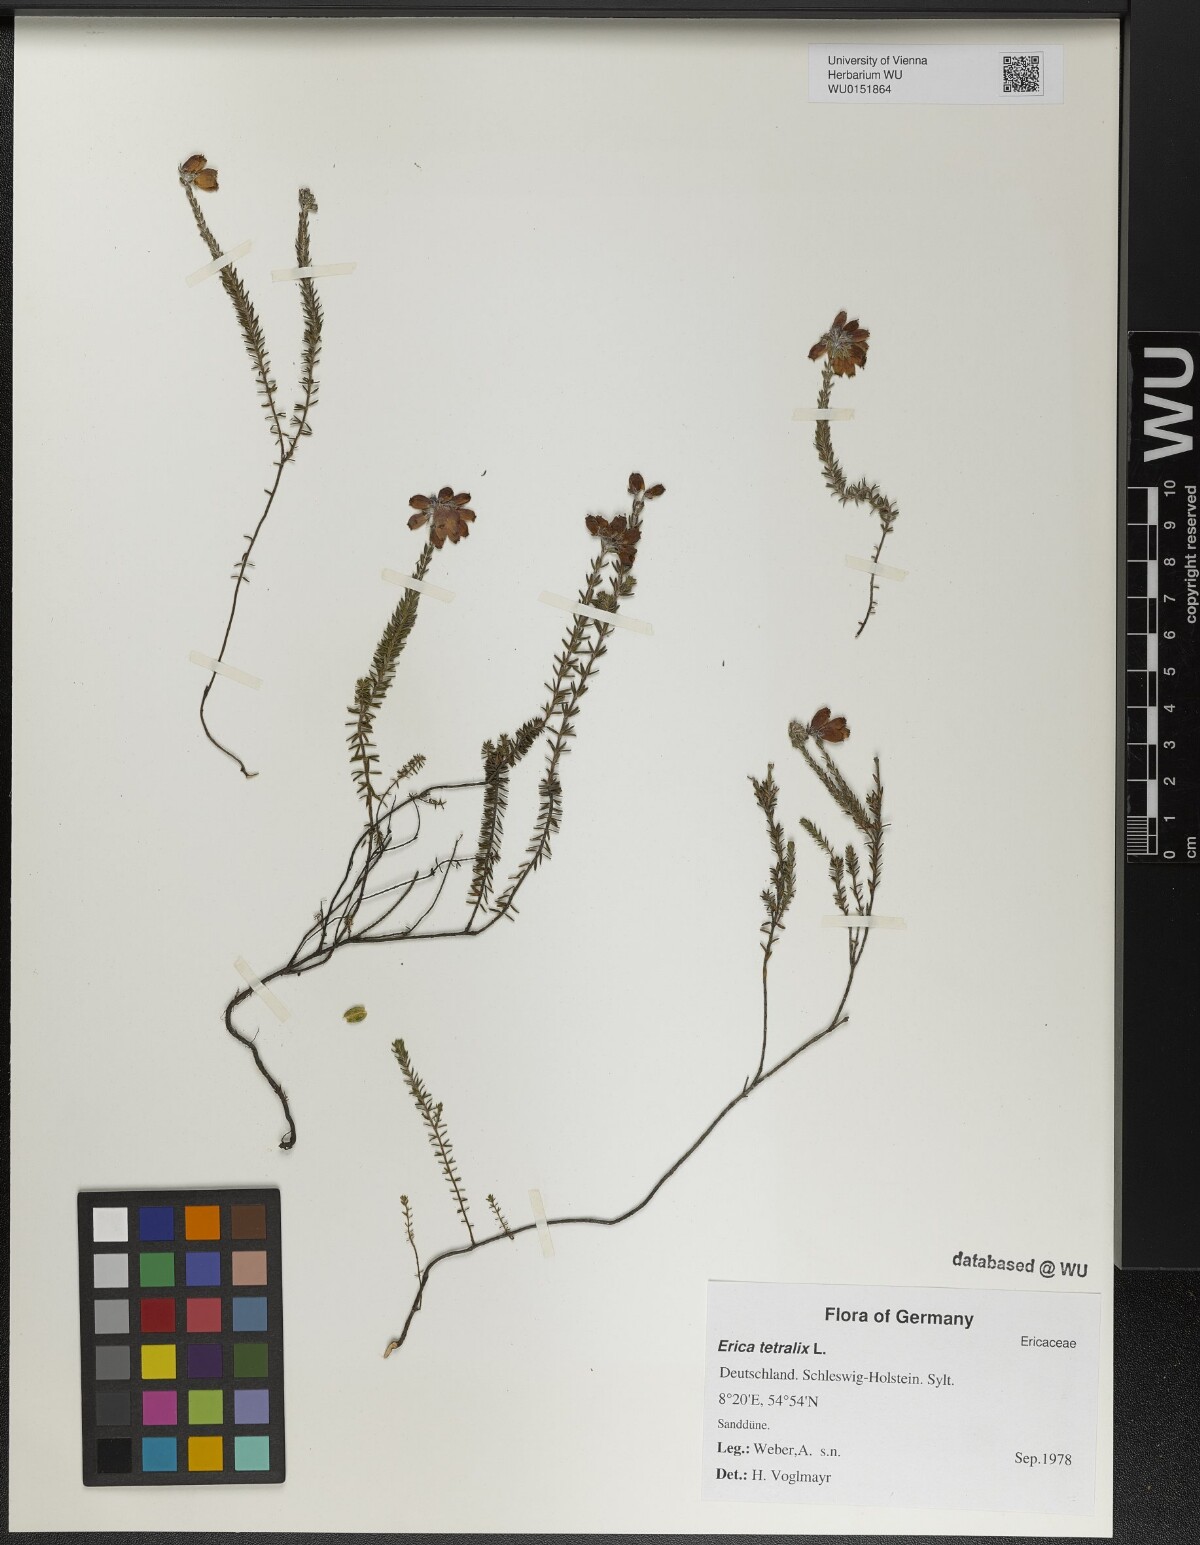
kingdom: Plantae
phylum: Tracheophyta
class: Magnoliopsida
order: Ericales
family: Ericaceae
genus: Erica
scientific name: Erica tetralix
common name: Cross-leaved heath
